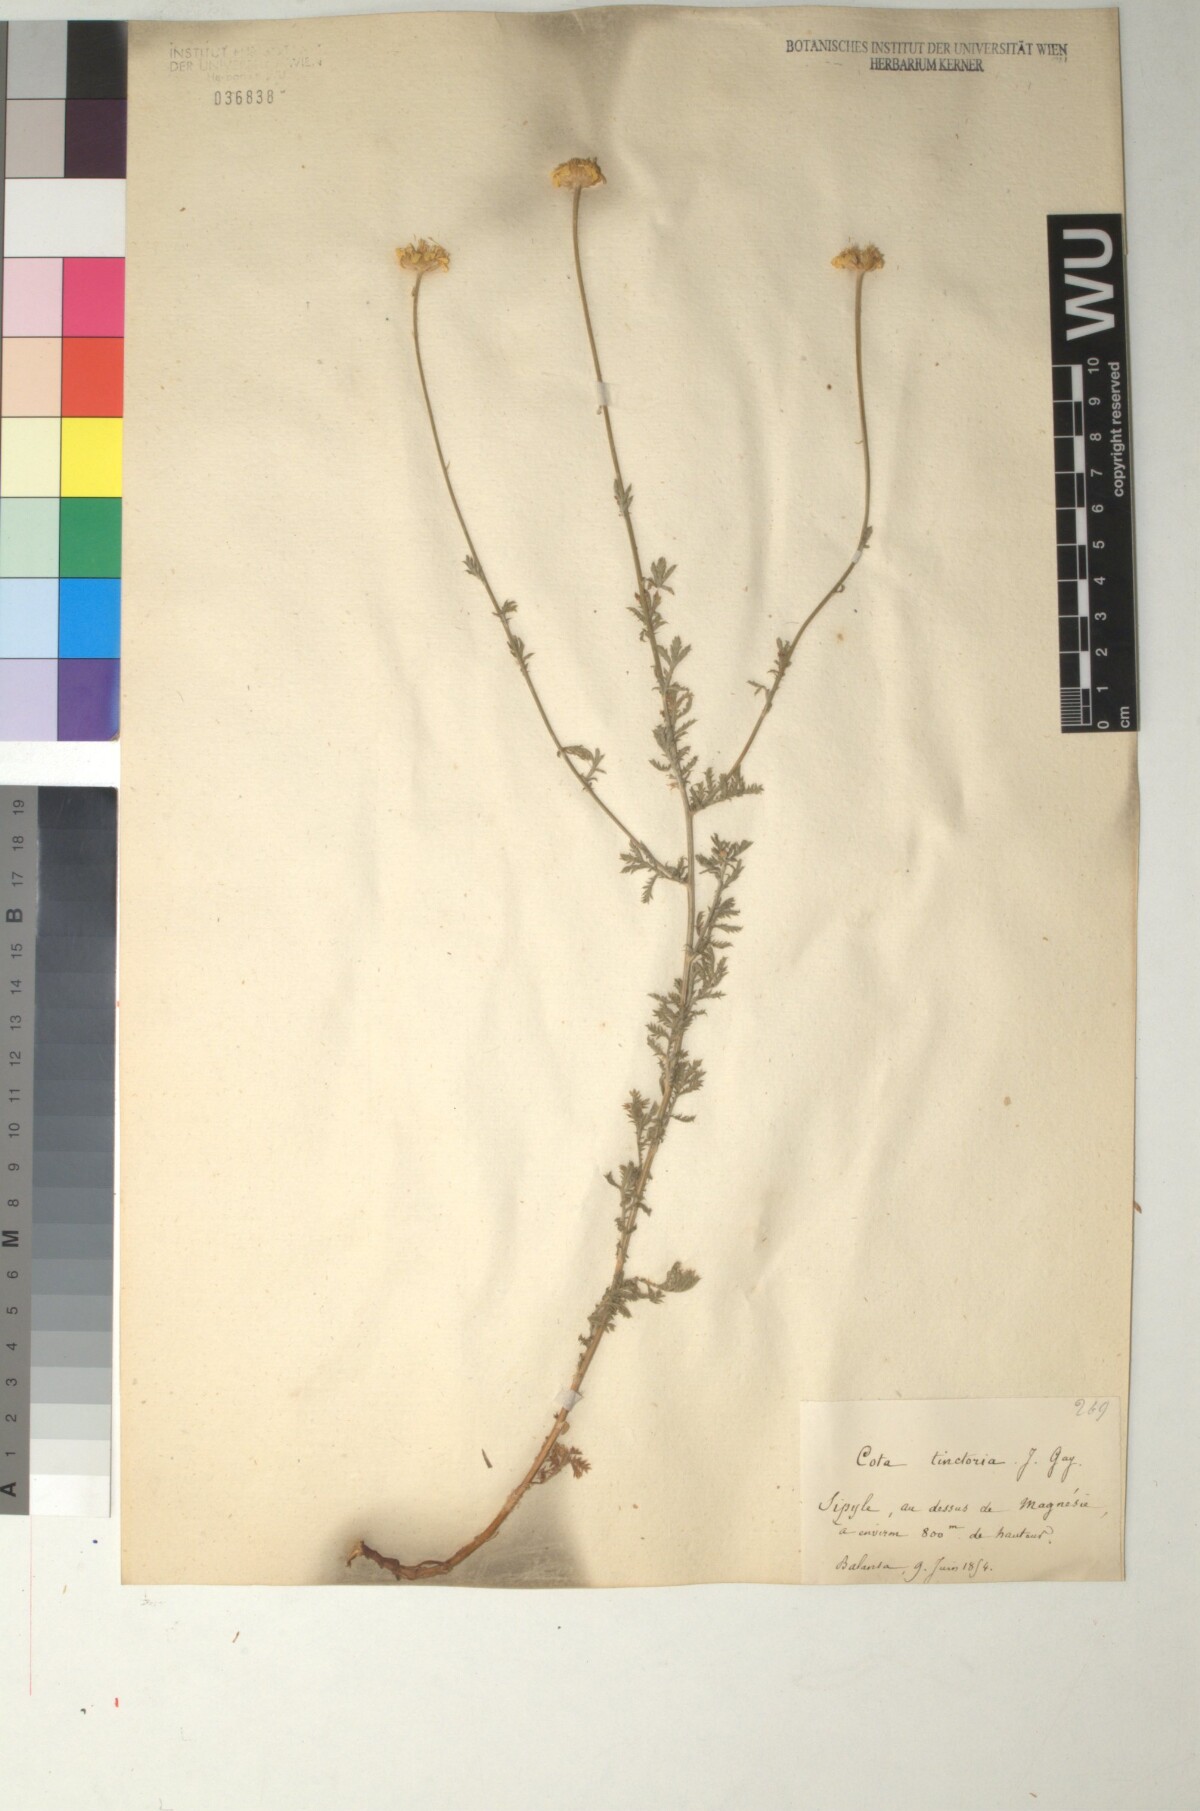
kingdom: Plantae
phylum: Tracheophyta
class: Magnoliopsida
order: Asterales
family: Asteraceae
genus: Cota
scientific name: Cota tinctoria
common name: Golden chamomile
